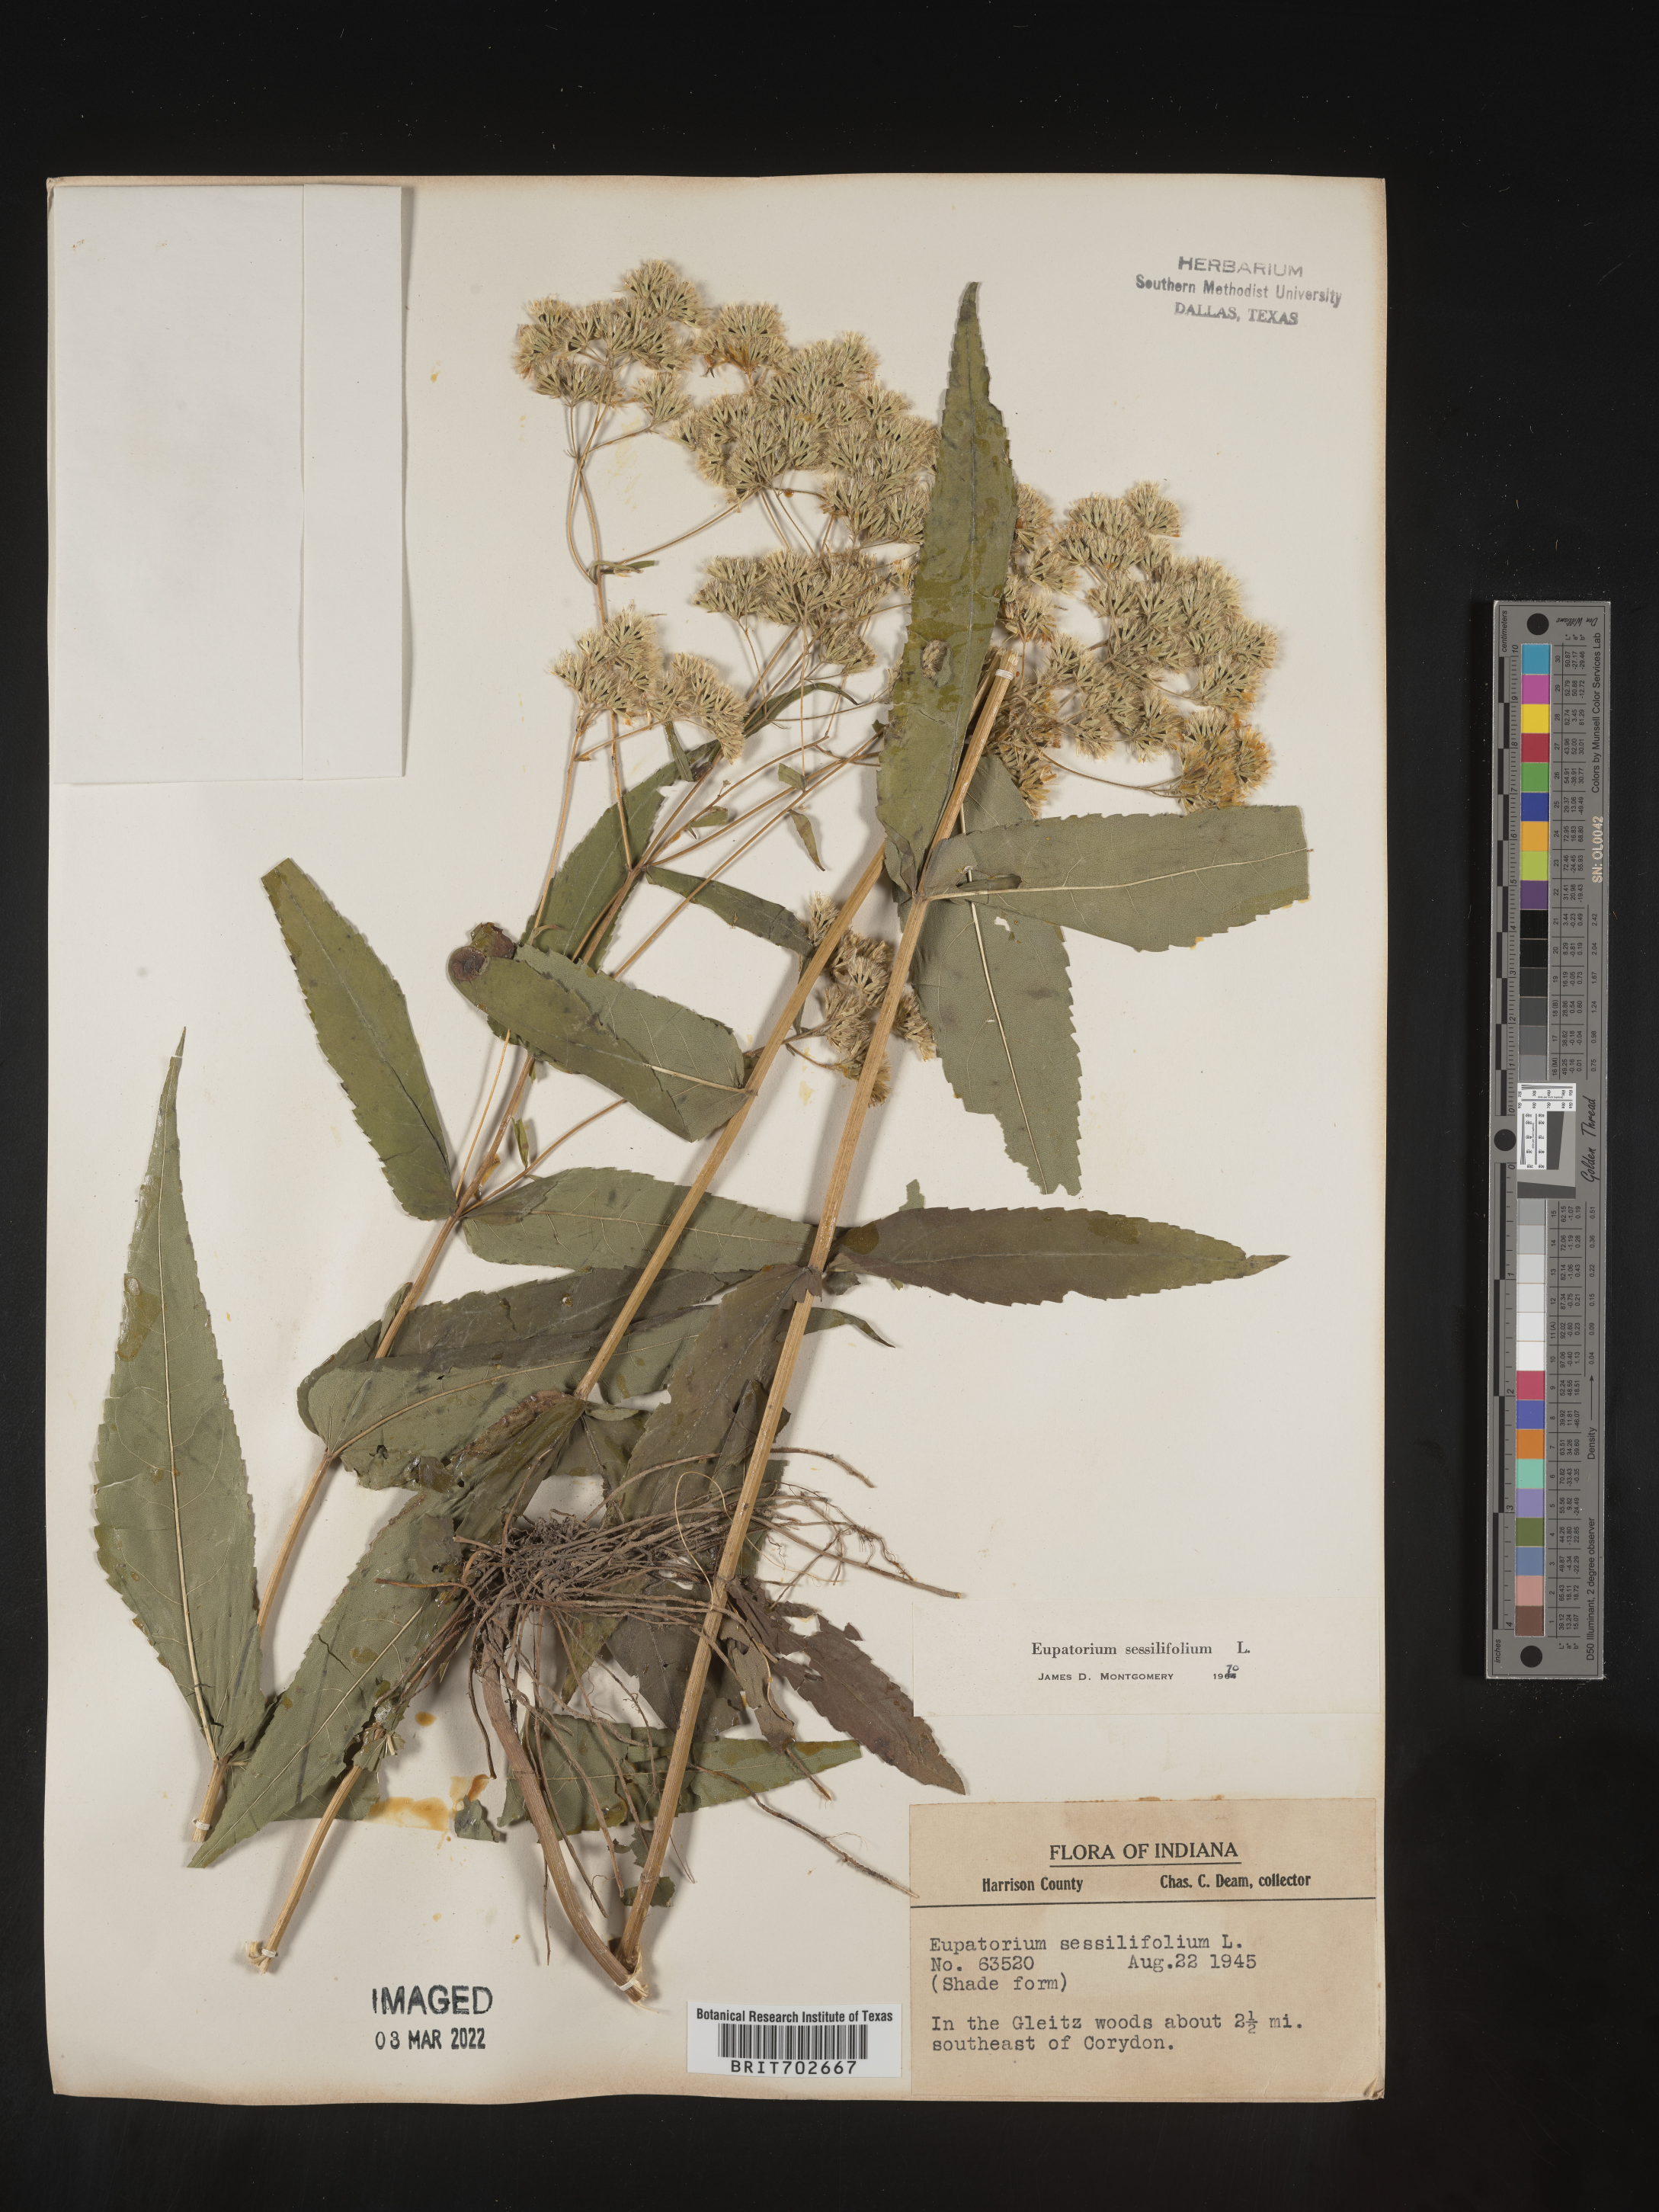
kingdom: Plantae
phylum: Tracheophyta
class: Magnoliopsida
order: Asterales
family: Asteraceae
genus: Eupatorium
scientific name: Eupatorium sessilifolium
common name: Upland boneset
